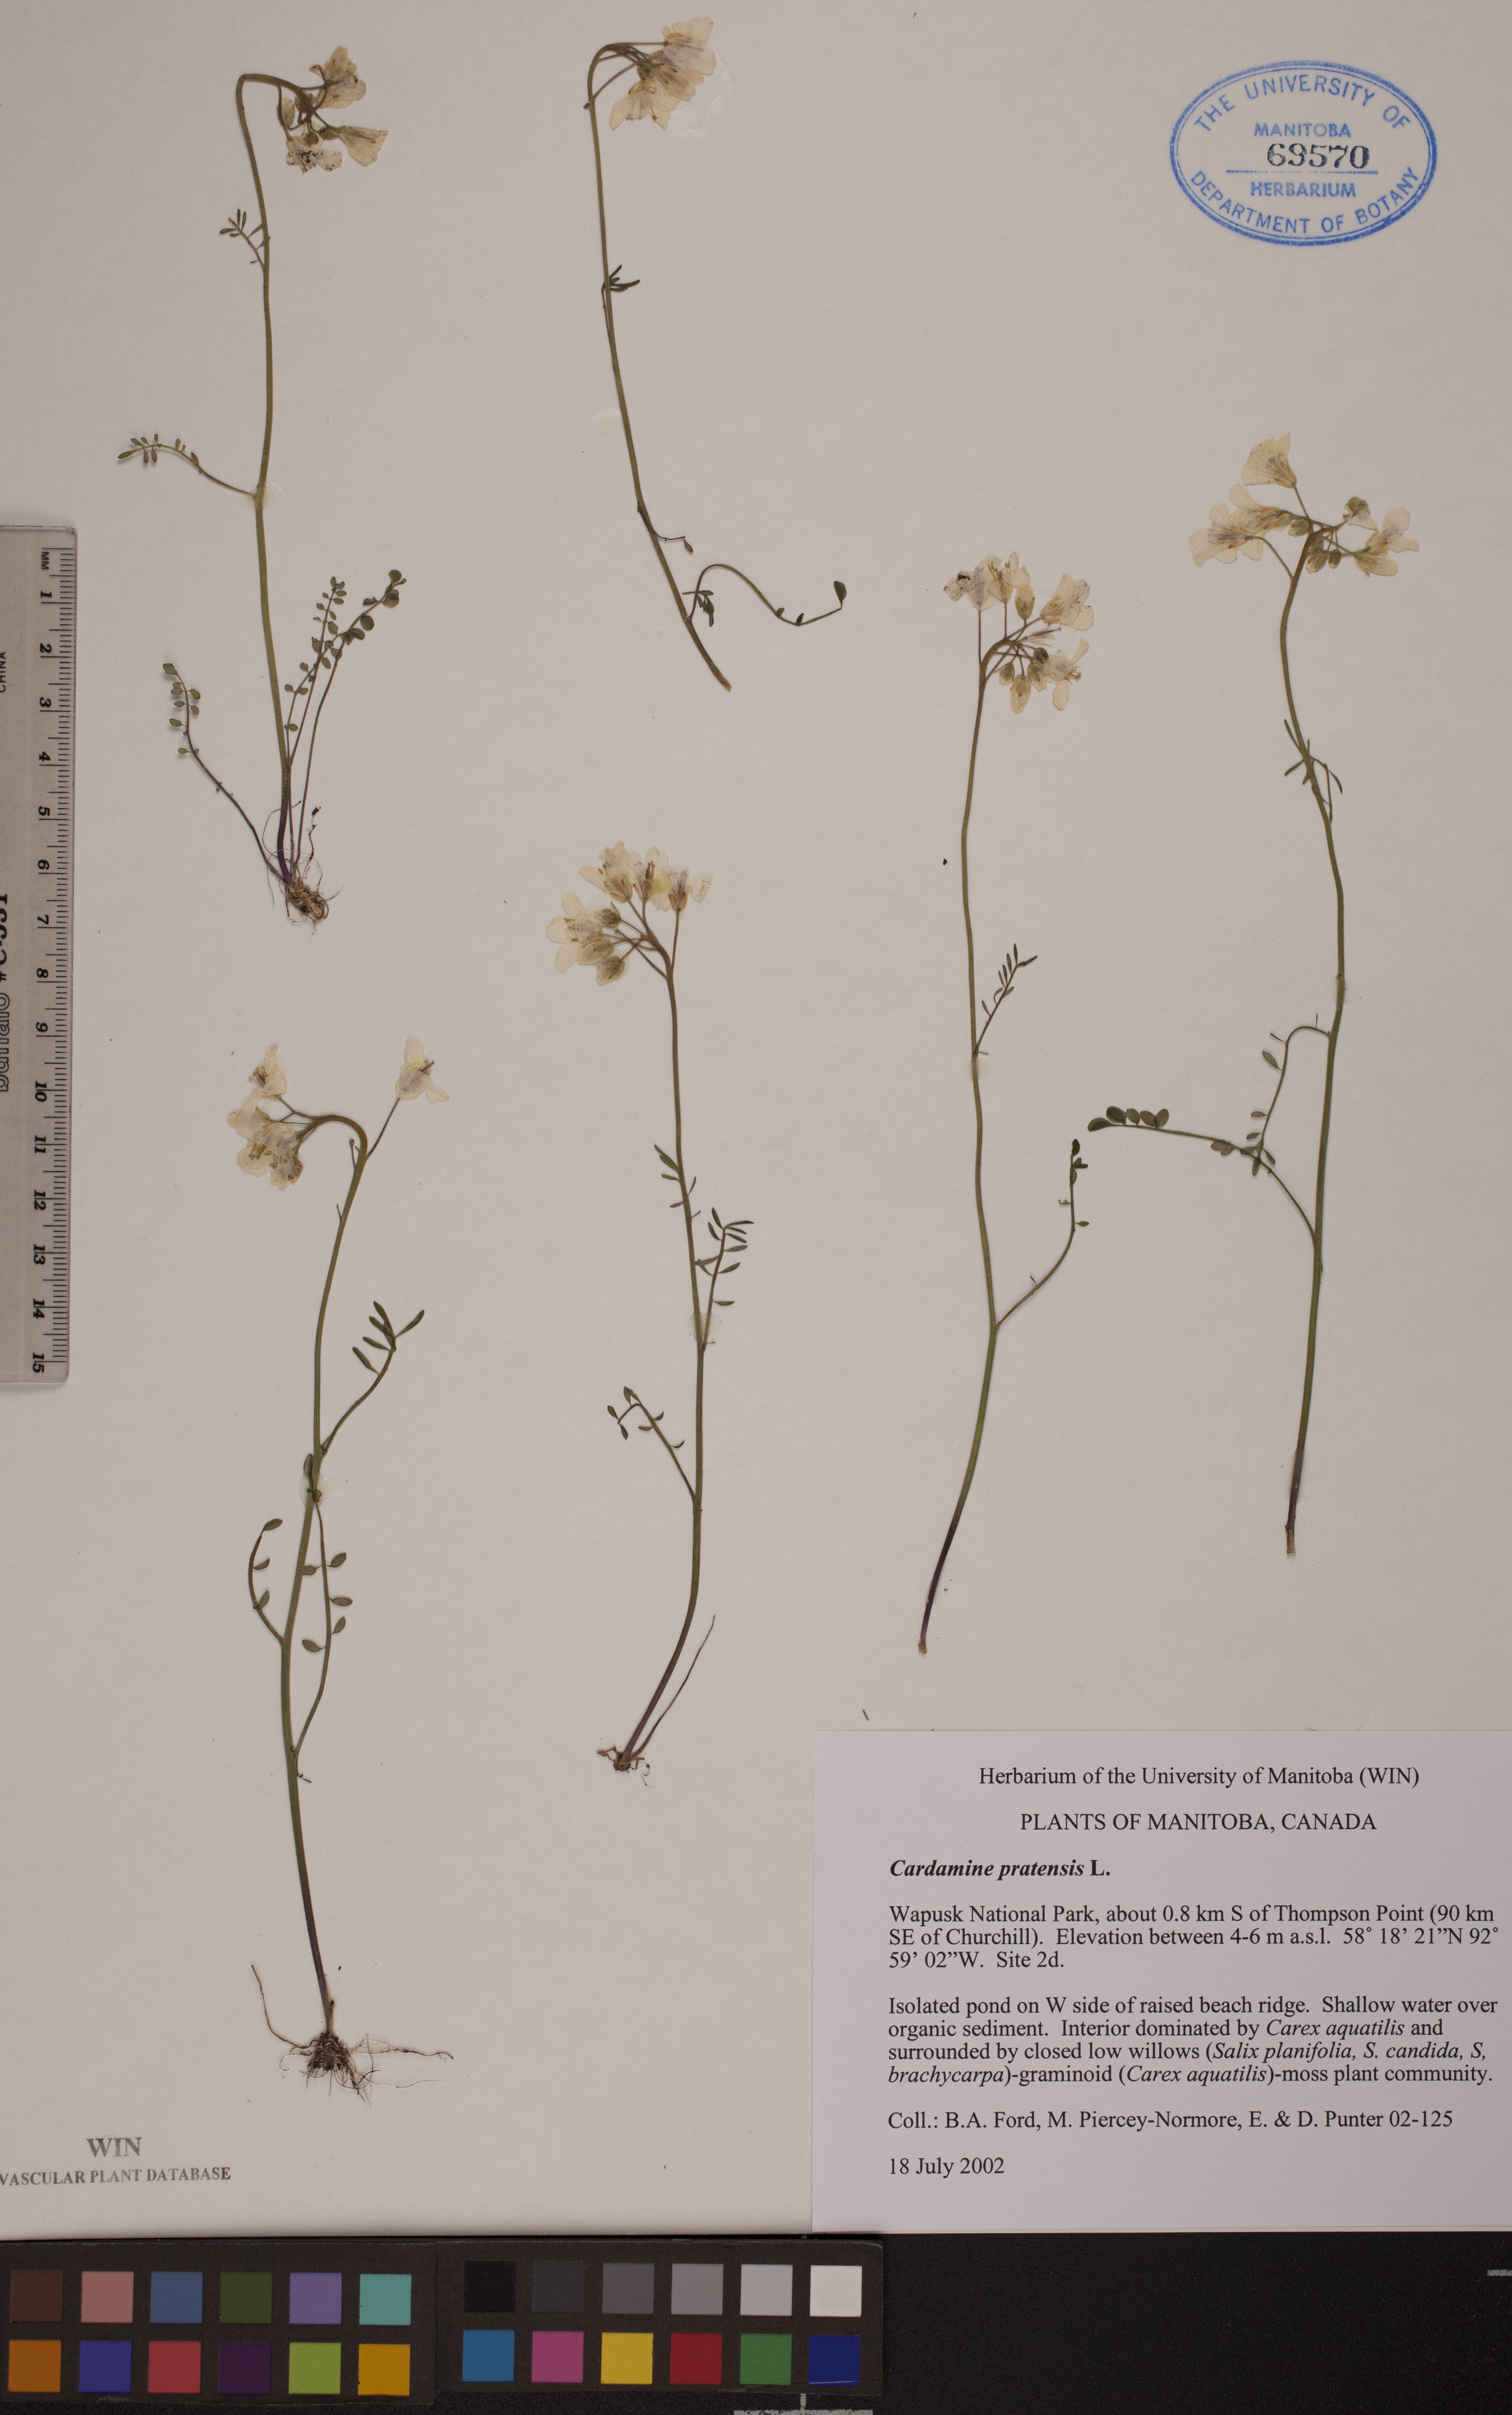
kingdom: Plantae
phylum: Tracheophyta
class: Magnoliopsida
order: Brassicales
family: Brassicaceae
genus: Cardamine
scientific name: Cardamine nymanii
